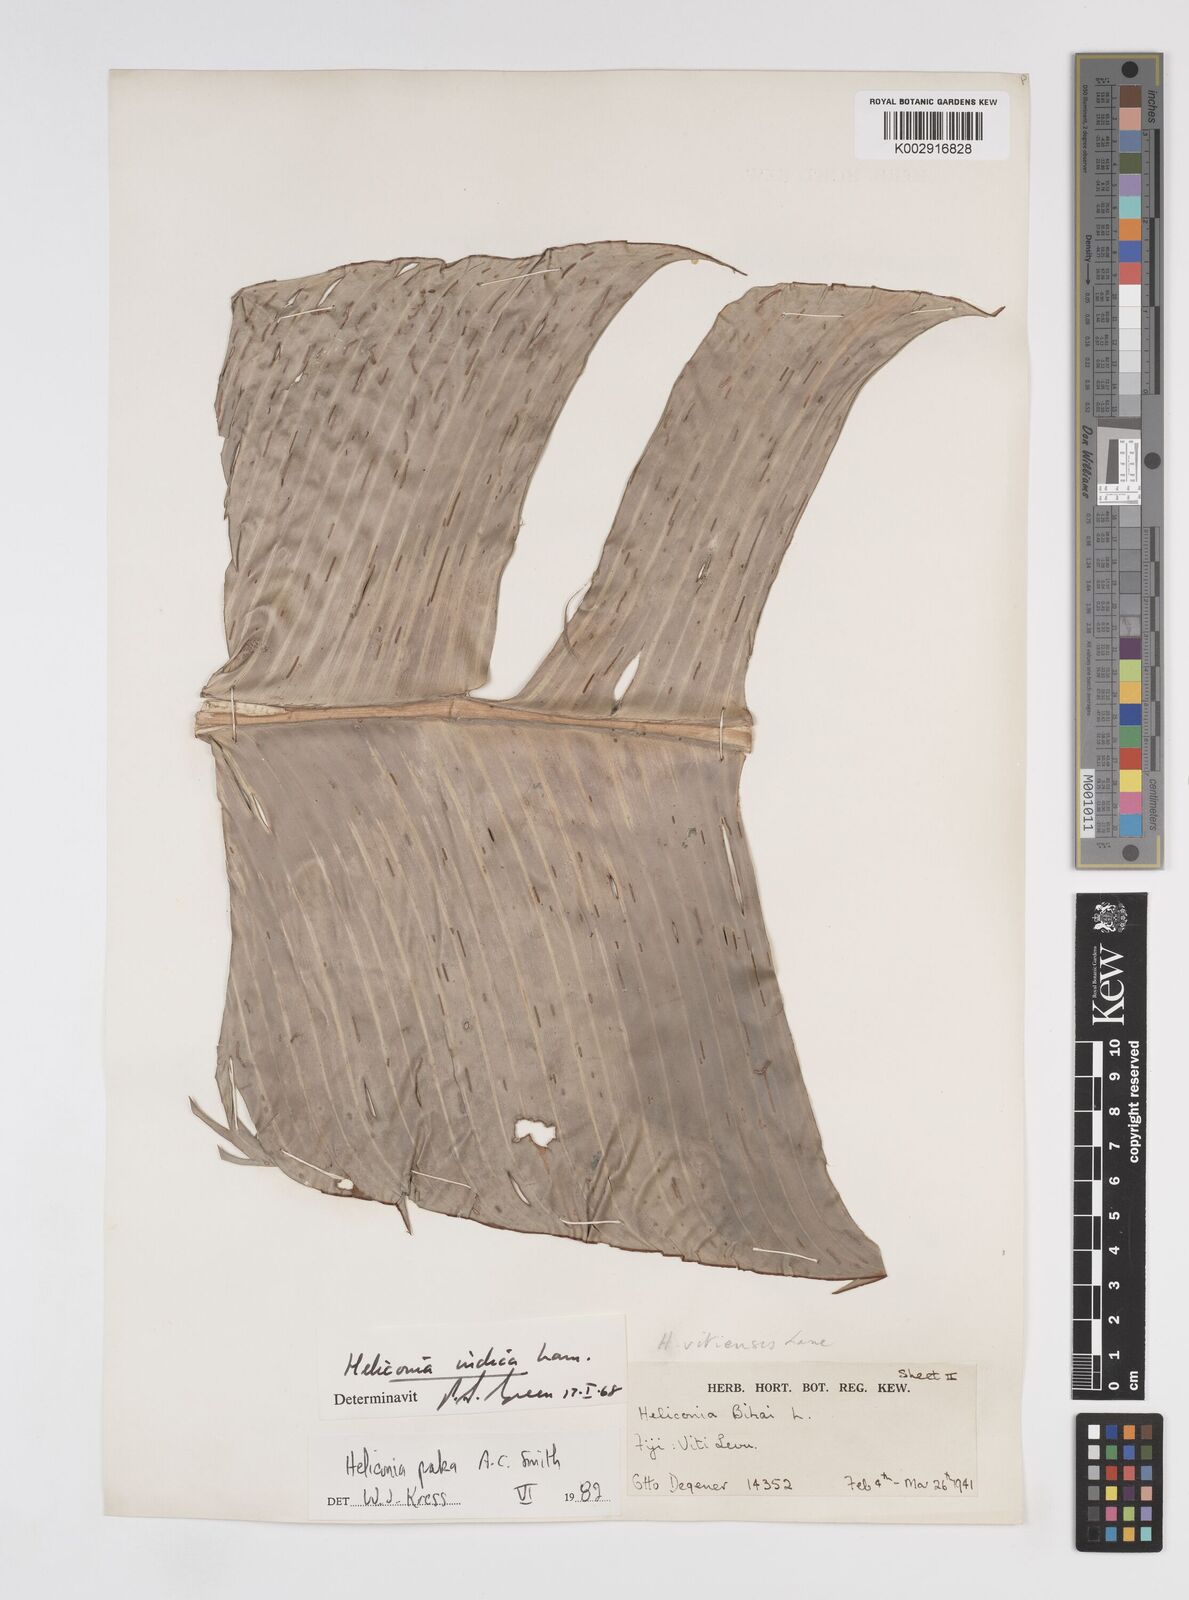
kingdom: Plantae
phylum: Tracheophyta
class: Liliopsida
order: Zingiberales
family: Heliconiaceae
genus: Heliconia
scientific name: Heliconia paka
